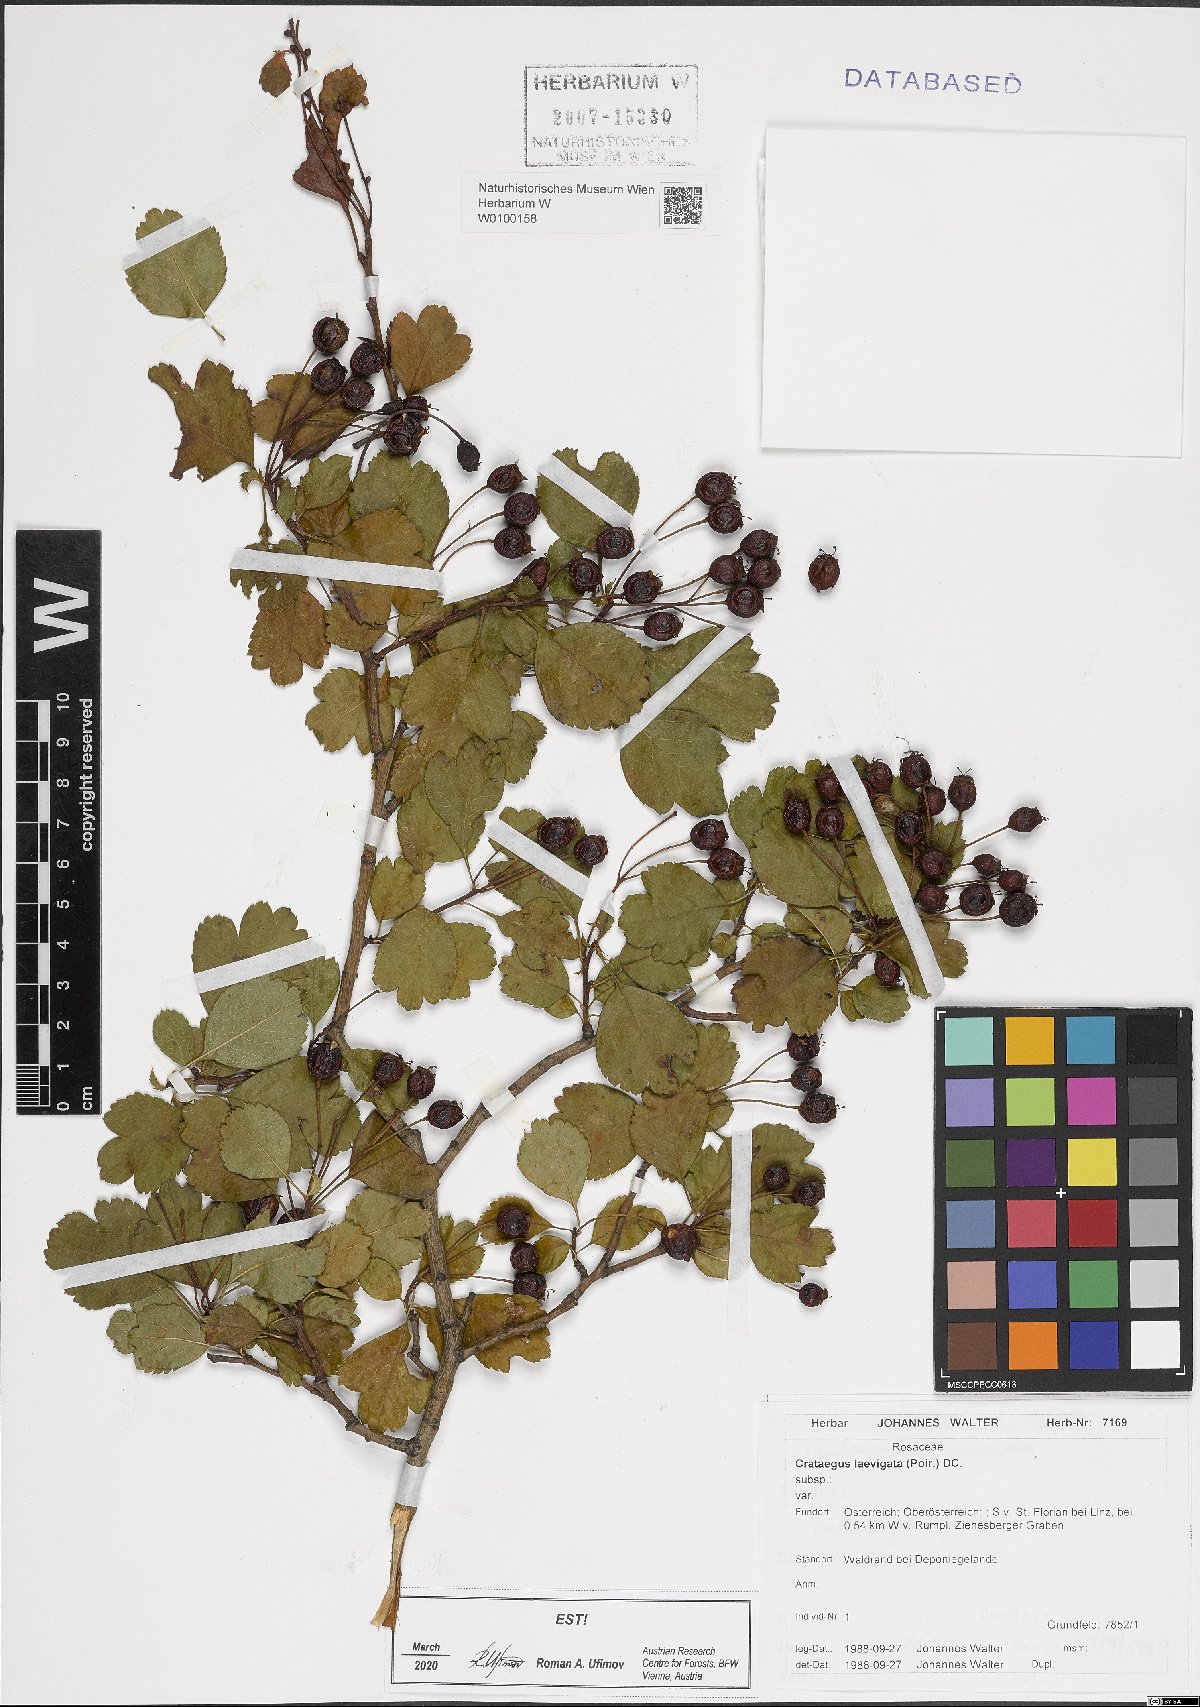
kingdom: Plantae
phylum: Tracheophyta
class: Magnoliopsida
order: Rosales
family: Rosaceae
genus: Crataegus
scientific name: Crataegus laevigata
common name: Midland hawthorn
